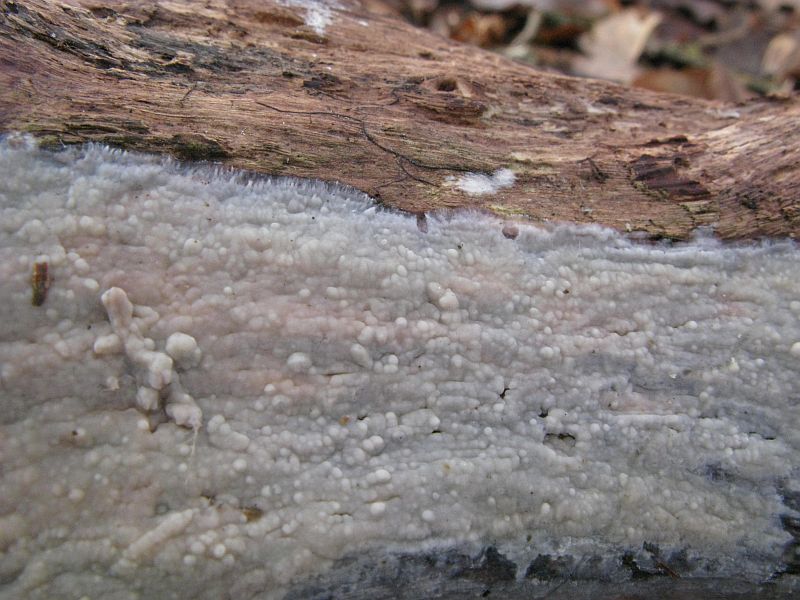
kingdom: Fungi
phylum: Basidiomycota
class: Agaricomycetes
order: Agaricales
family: Radulomycetaceae
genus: Radulomyces
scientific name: Radulomyces confluens
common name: glat naftalinskind
